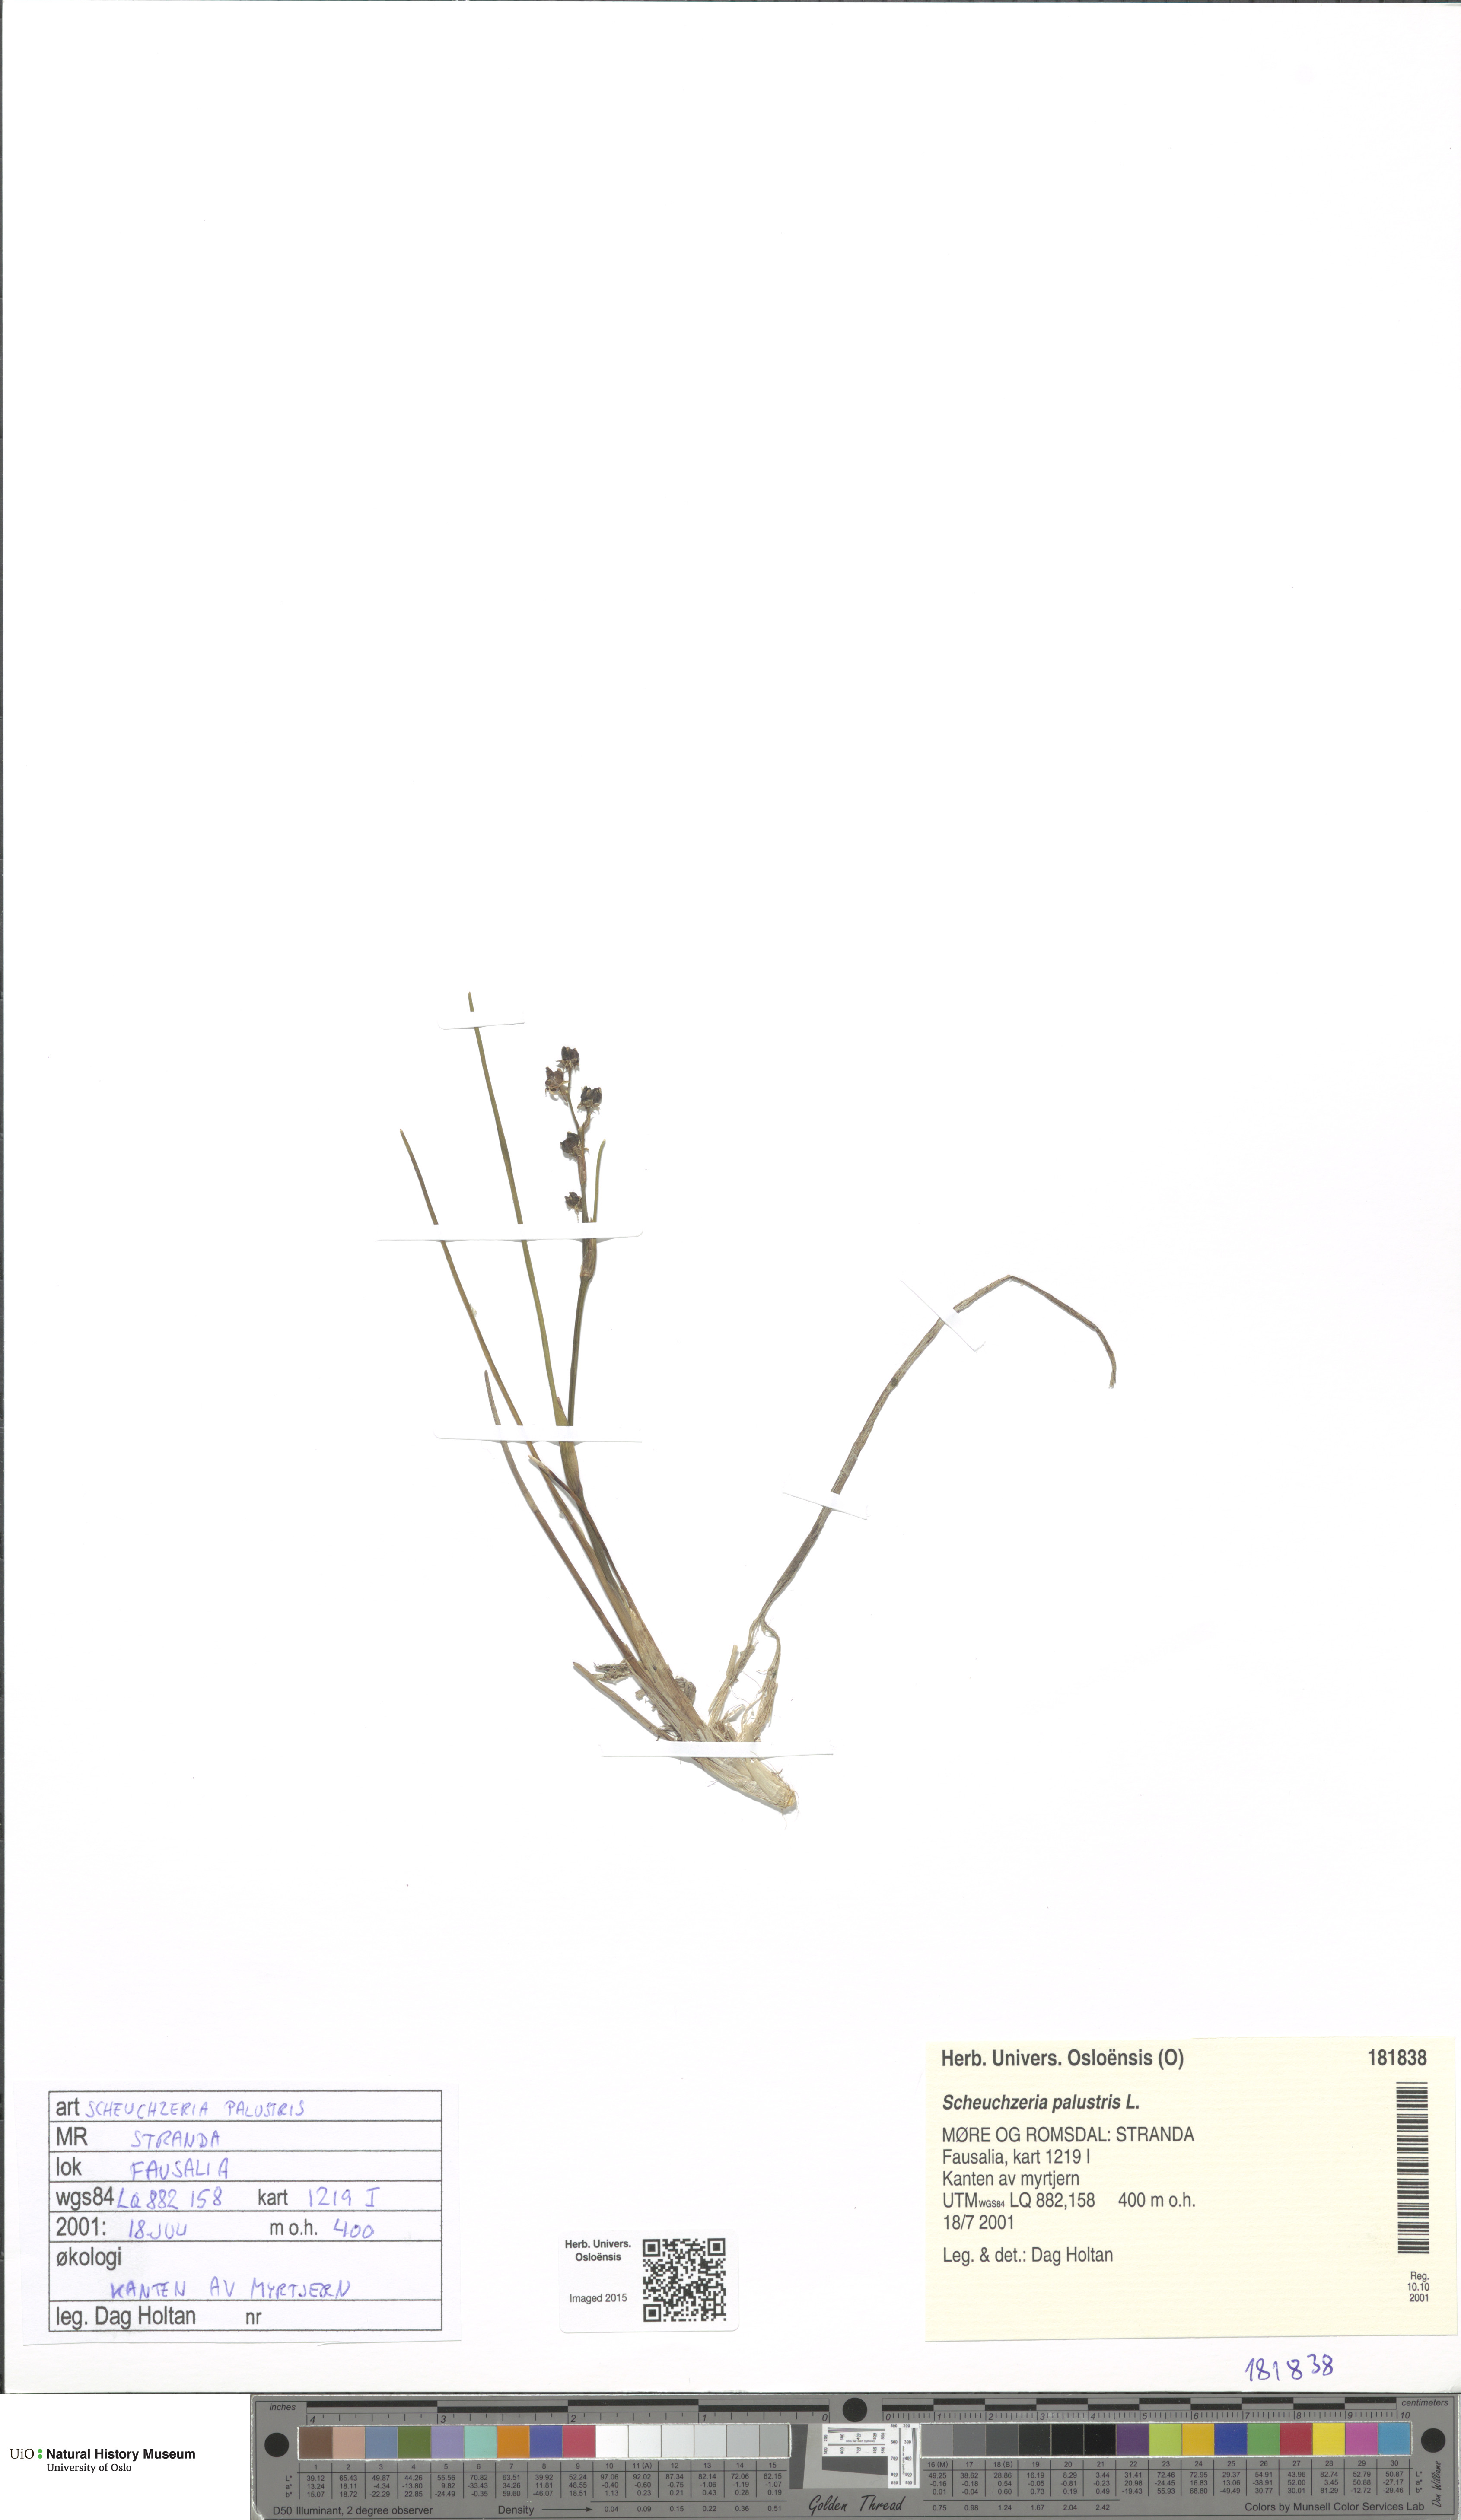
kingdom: Plantae
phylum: Tracheophyta
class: Liliopsida
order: Alismatales
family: Scheuchzeriaceae
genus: Scheuchzeria
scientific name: Scheuchzeria palustris
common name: Rannoch-rush
